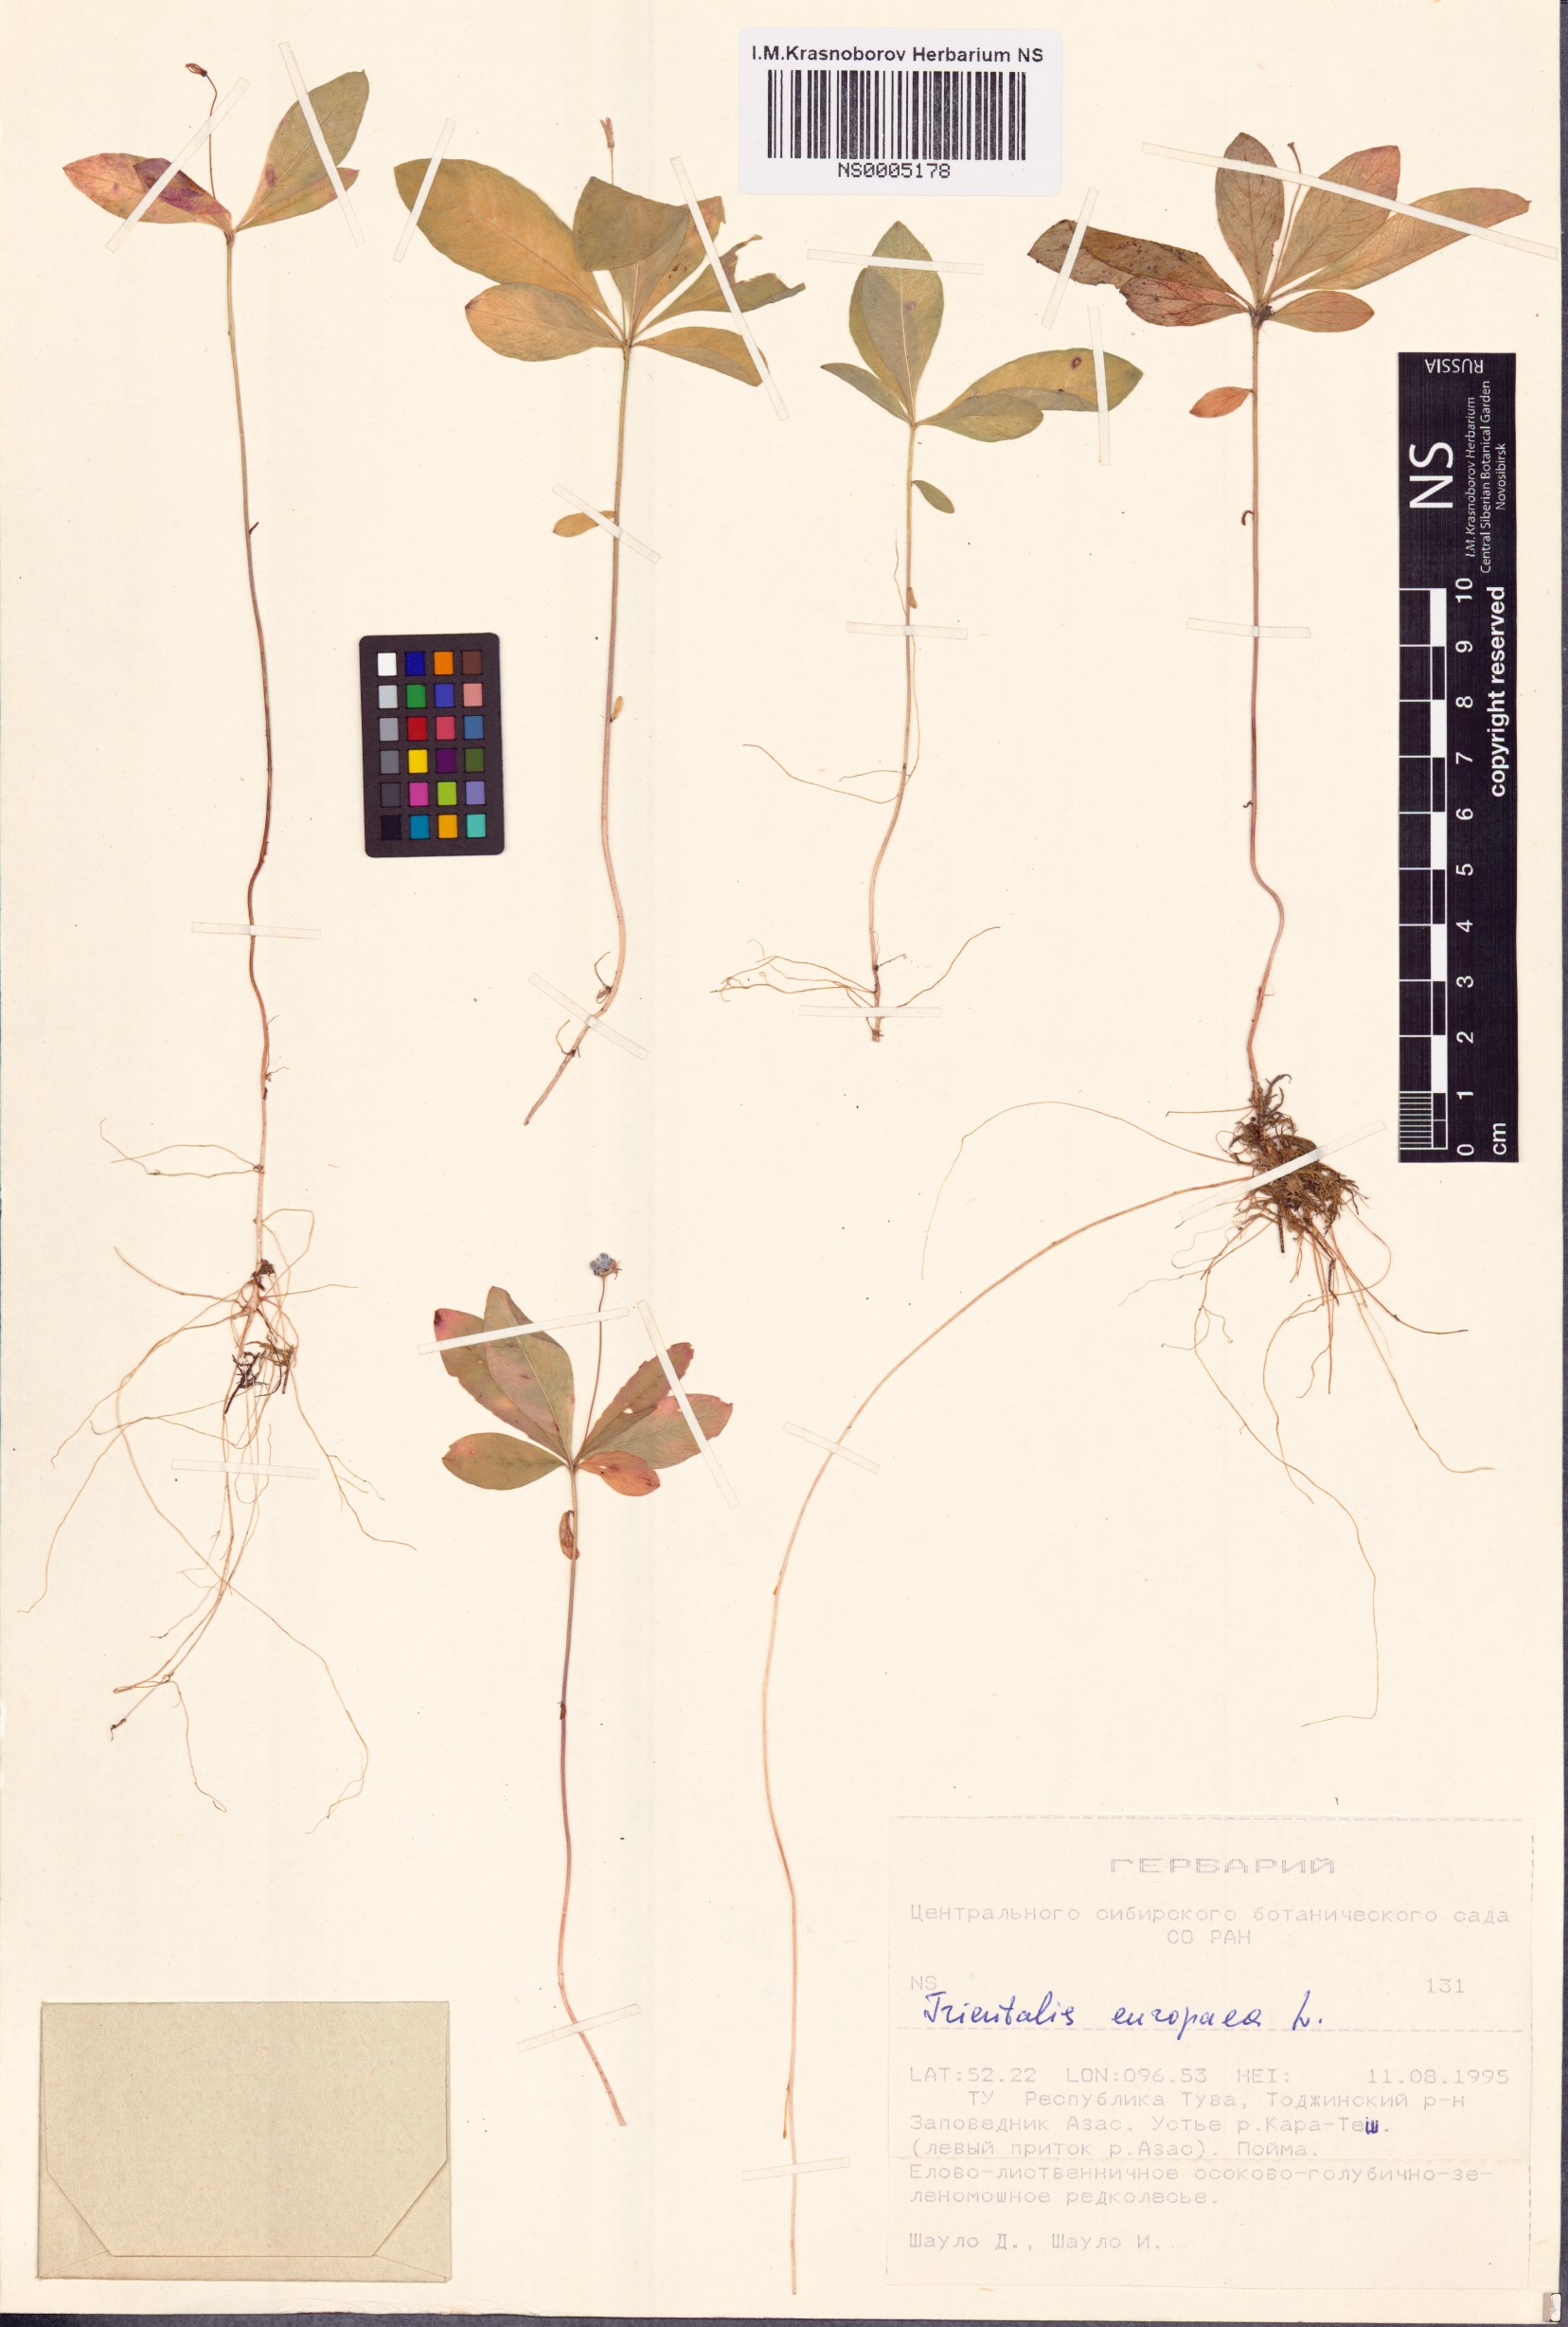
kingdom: Plantae
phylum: Tracheophyta
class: Magnoliopsida
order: Ericales
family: Primulaceae
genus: Lysimachia
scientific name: Lysimachia europaea
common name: Arctic starflower
